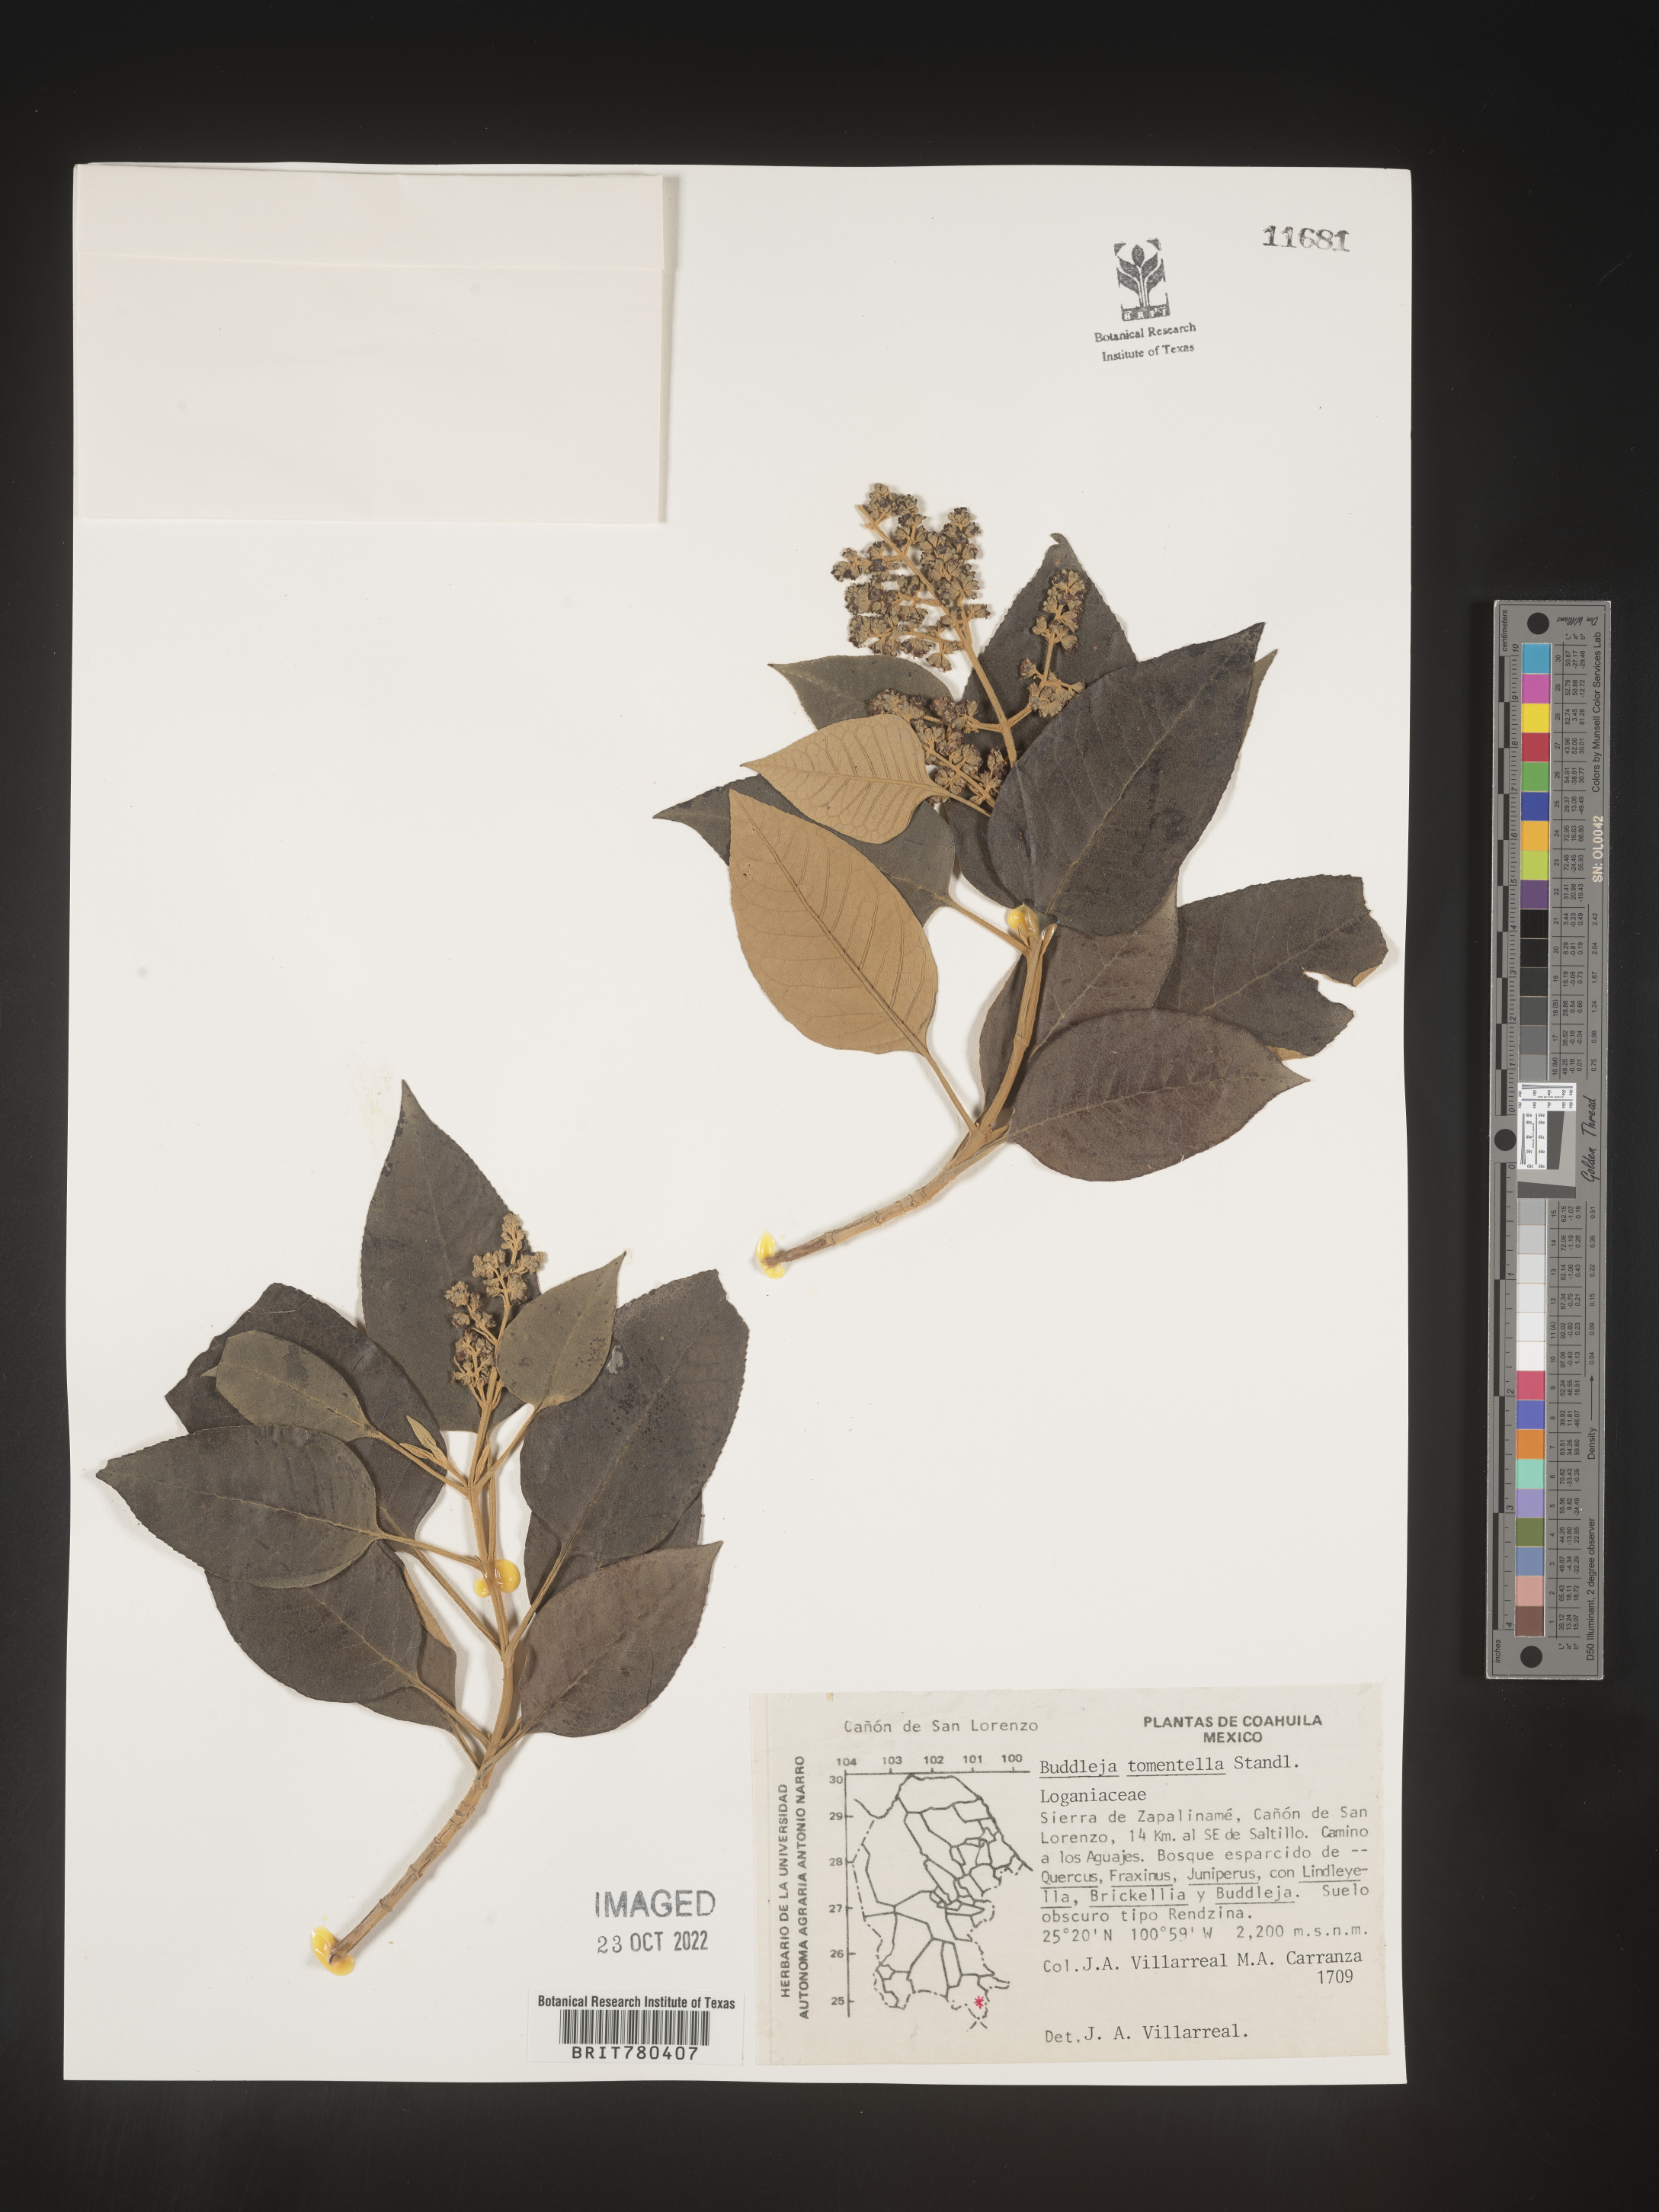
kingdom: Plantae
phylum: Tracheophyta
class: Magnoliopsida
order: Lamiales
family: Scrophulariaceae
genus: Buddleja
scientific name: Buddleja
